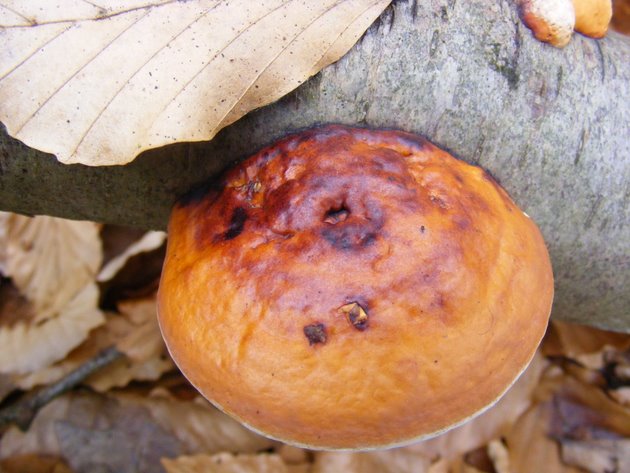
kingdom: Fungi
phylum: Basidiomycota
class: Agaricomycetes
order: Polyporales
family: Fomitopsidaceae
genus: Fomitopsis
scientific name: Fomitopsis pinicola
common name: randbæltet hovporesvamp
